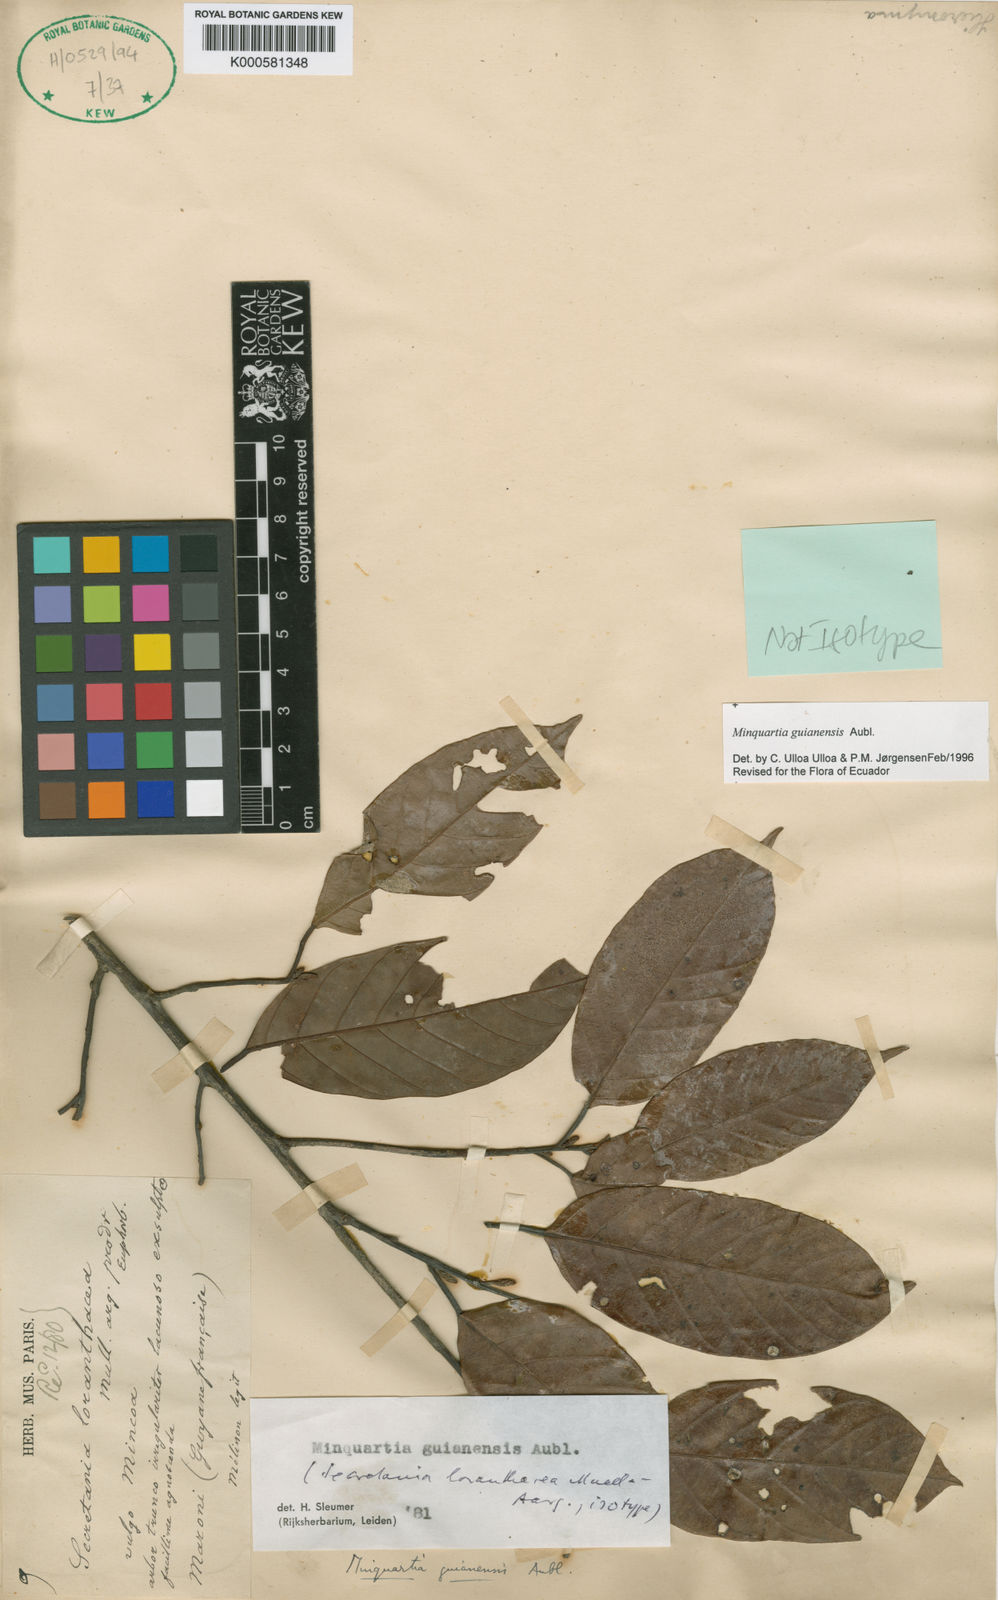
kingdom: Plantae
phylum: Tracheophyta
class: Magnoliopsida
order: Santalales
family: Coulaceae
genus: Minquartia
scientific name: Minquartia guianensis
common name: Black manwood
